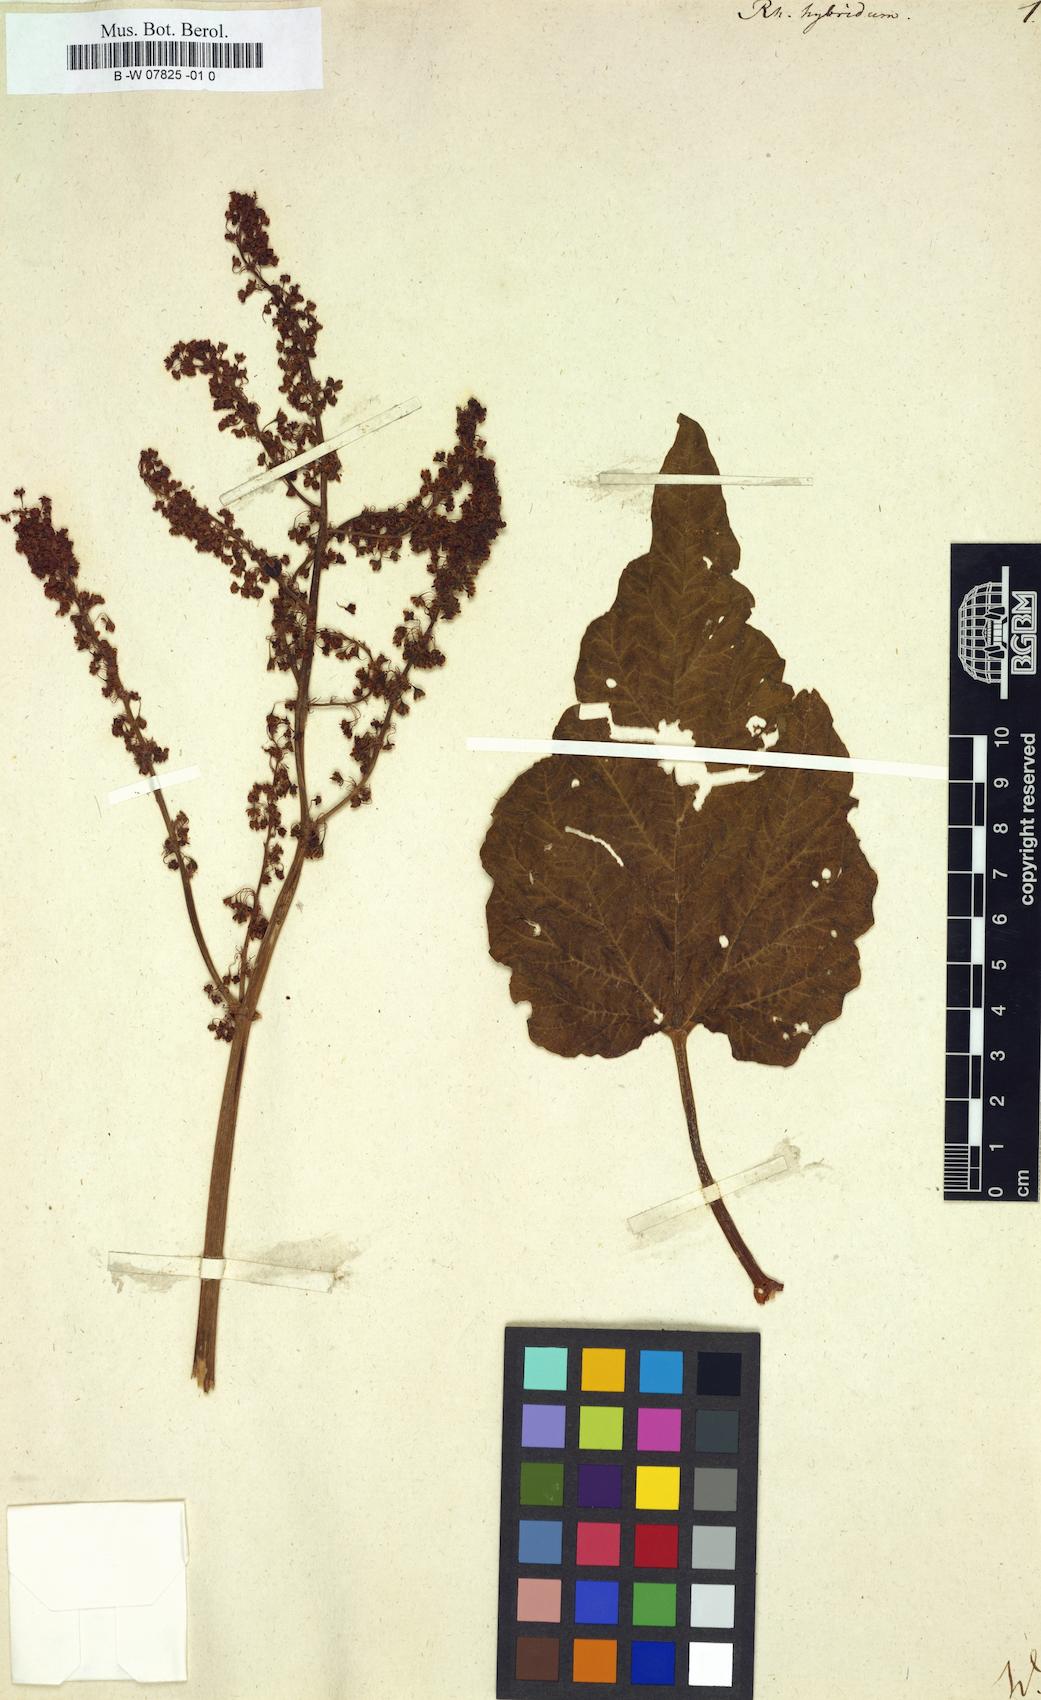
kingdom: Plantae
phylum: Tracheophyta
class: Magnoliopsida
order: Caryophyllales
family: Polygonaceae
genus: Rheum
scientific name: Rheum hybridum
